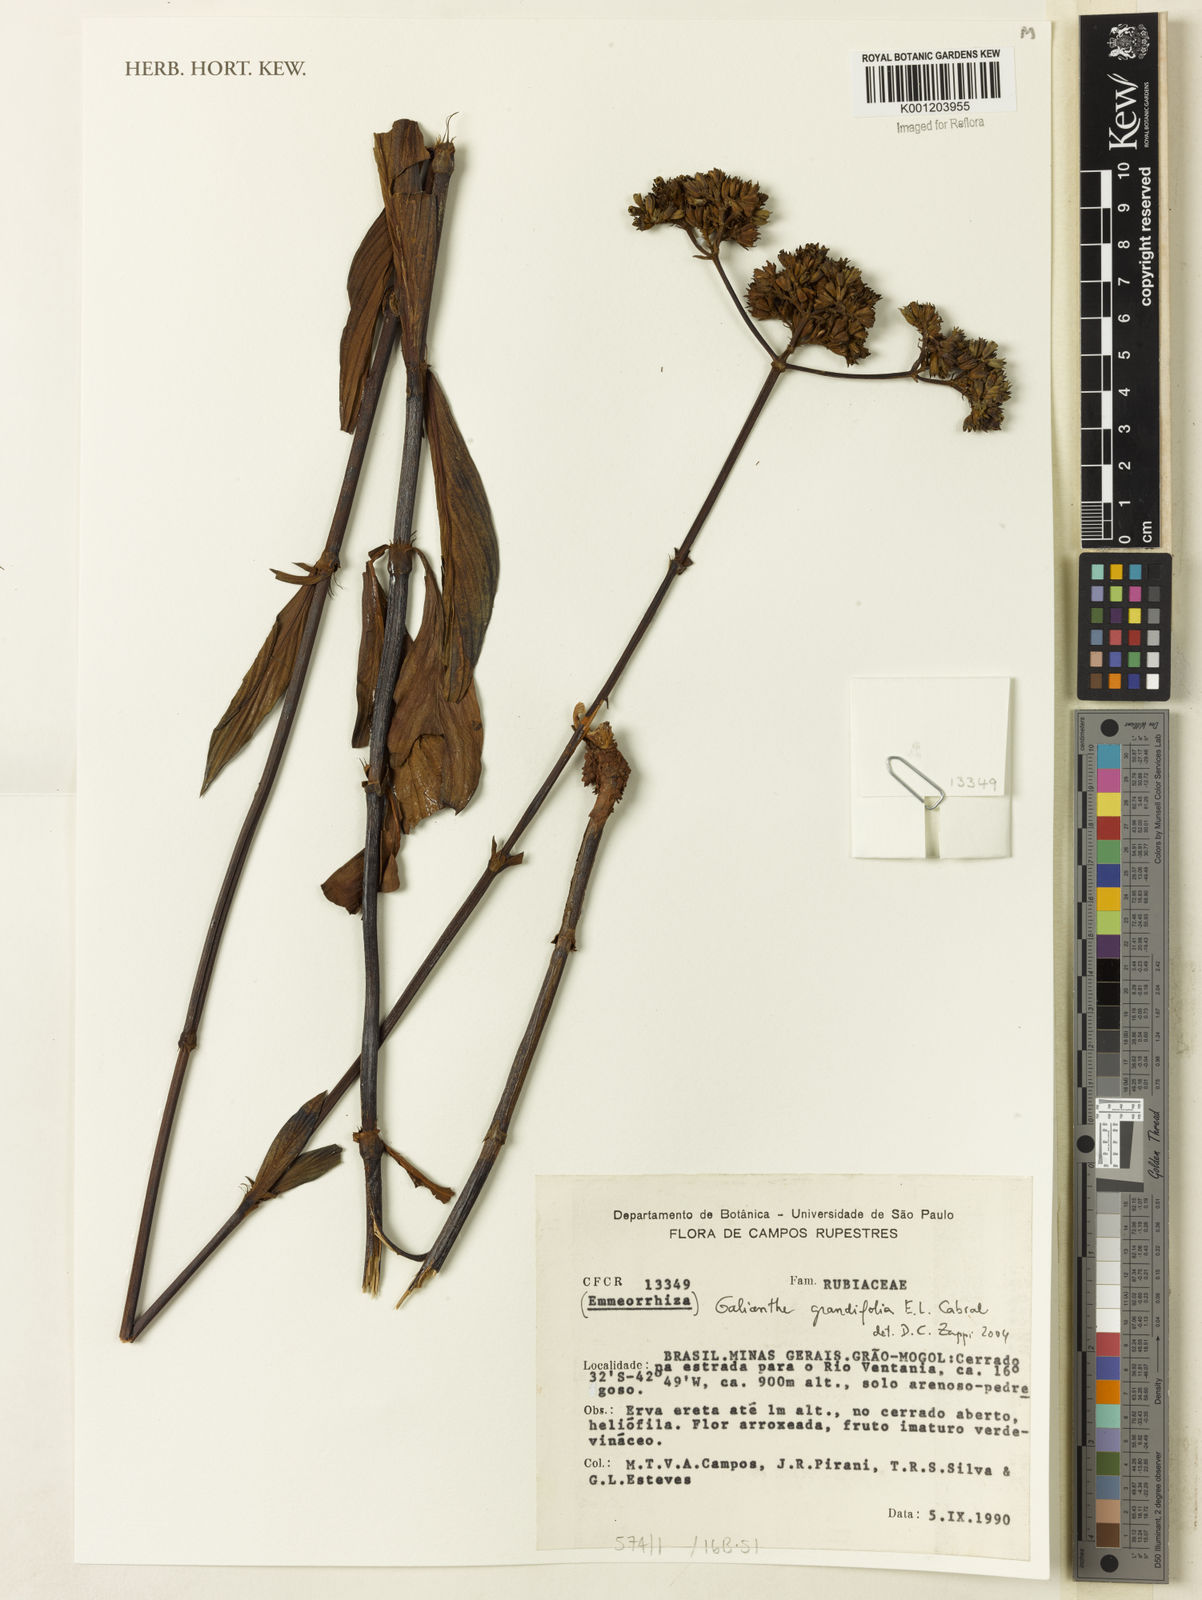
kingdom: Plantae
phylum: Tracheophyta
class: Magnoliopsida
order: Gentianales
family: Rubiaceae
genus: Galianthe
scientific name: Galianthe grandifolia
